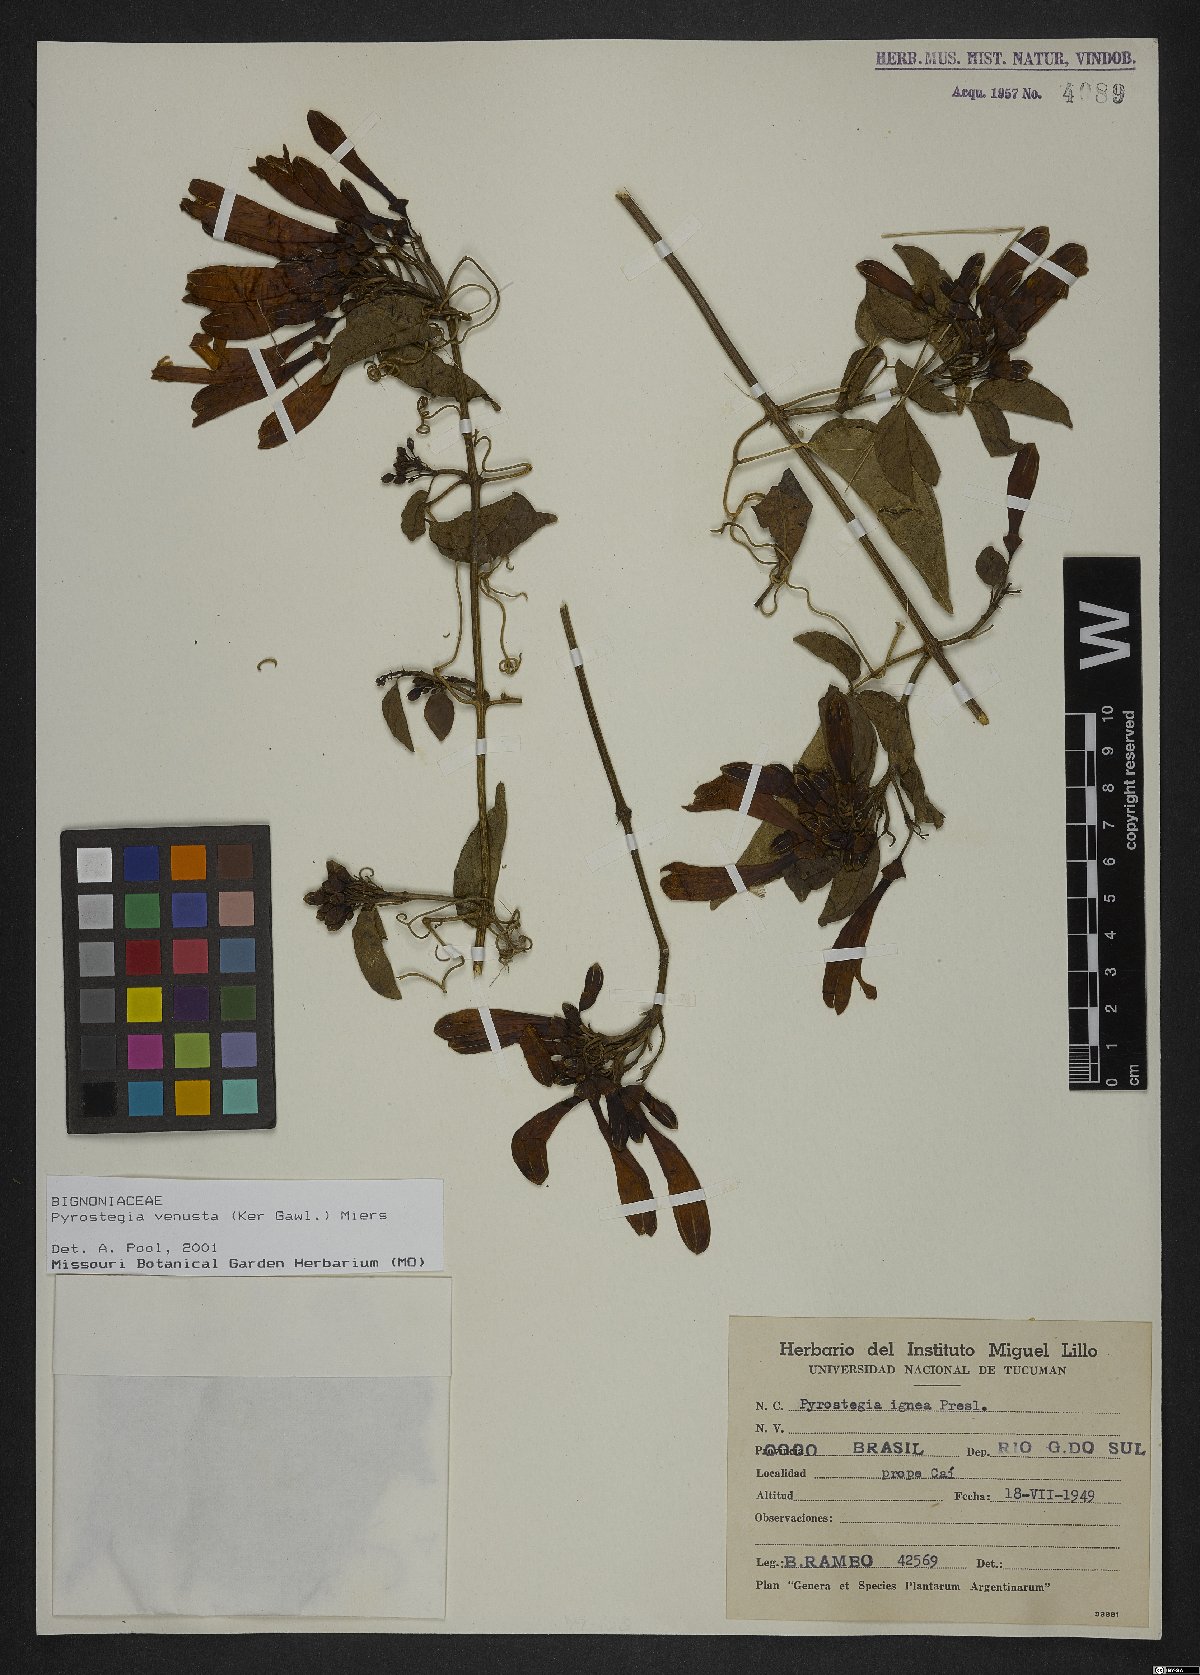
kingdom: Plantae
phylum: Tracheophyta
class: Magnoliopsida
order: Lamiales
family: Bignoniaceae
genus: Pyrostegia
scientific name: Pyrostegia venusta
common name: Flamevine
